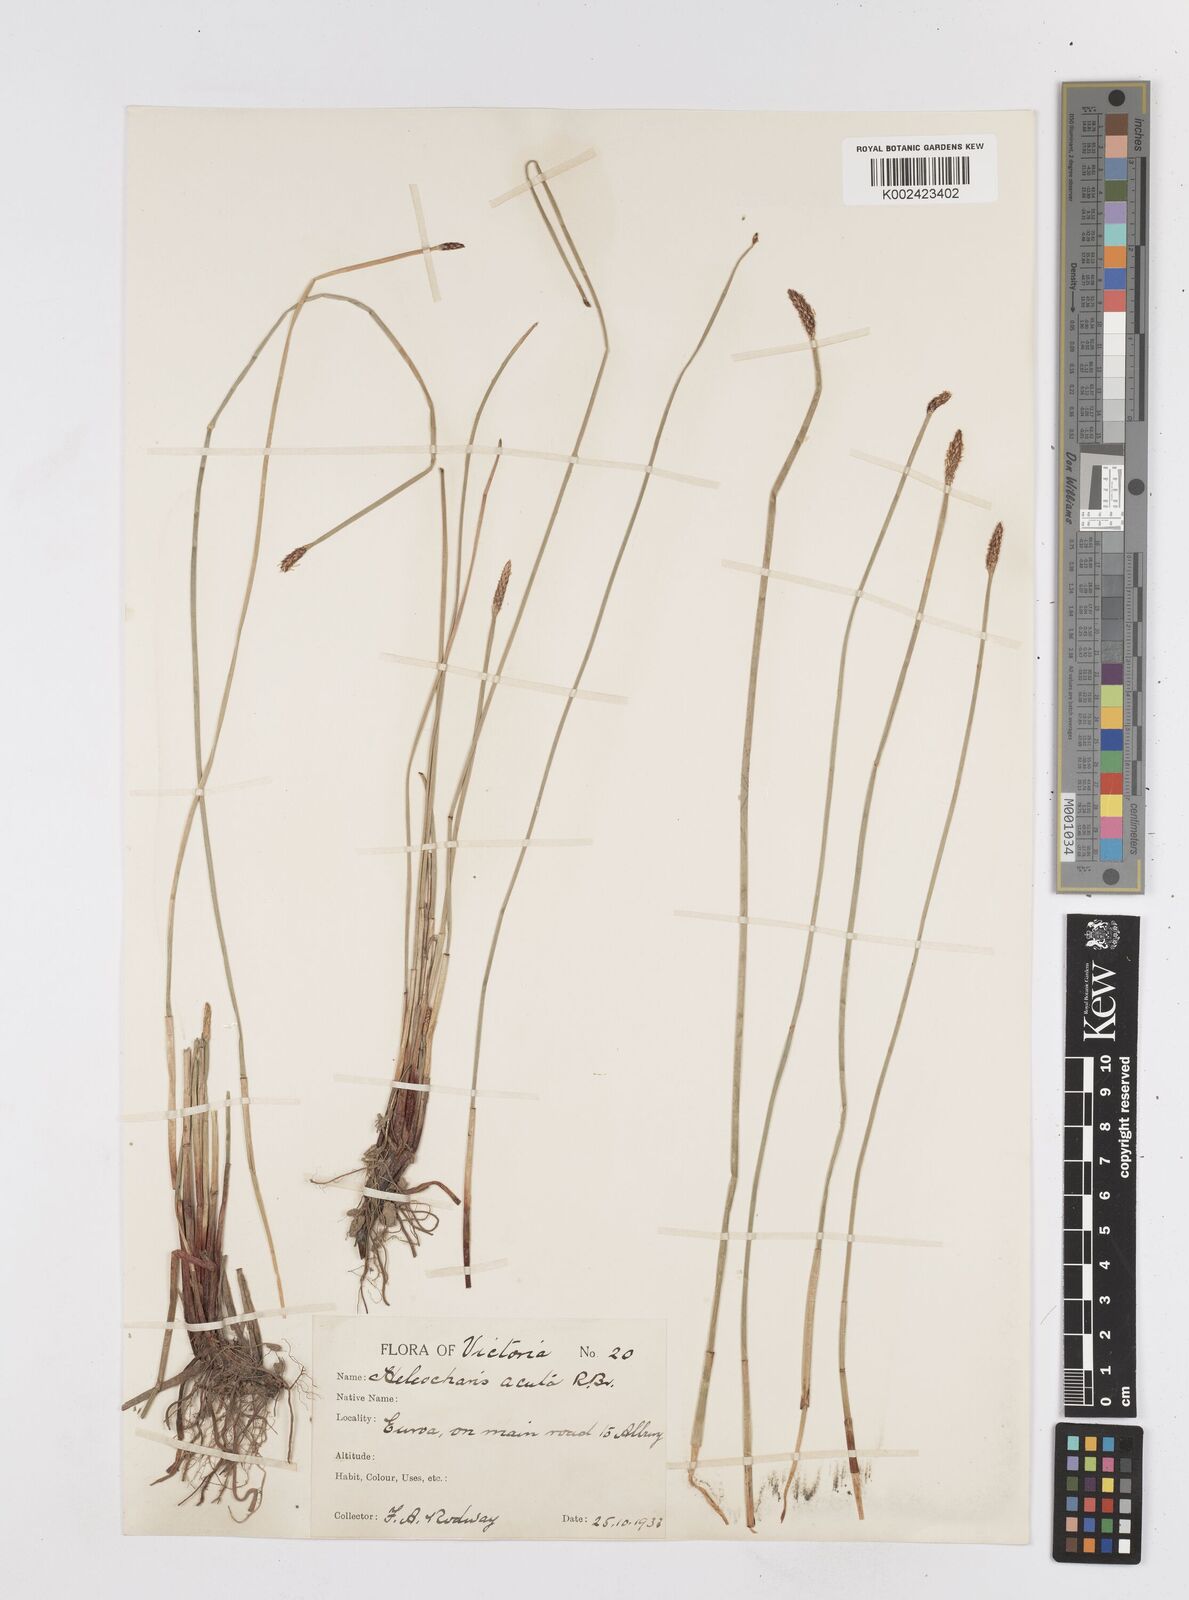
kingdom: Plantae
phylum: Tracheophyta
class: Liliopsida
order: Poales
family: Cyperaceae
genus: Eleocharis
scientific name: Eleocharis acuta
